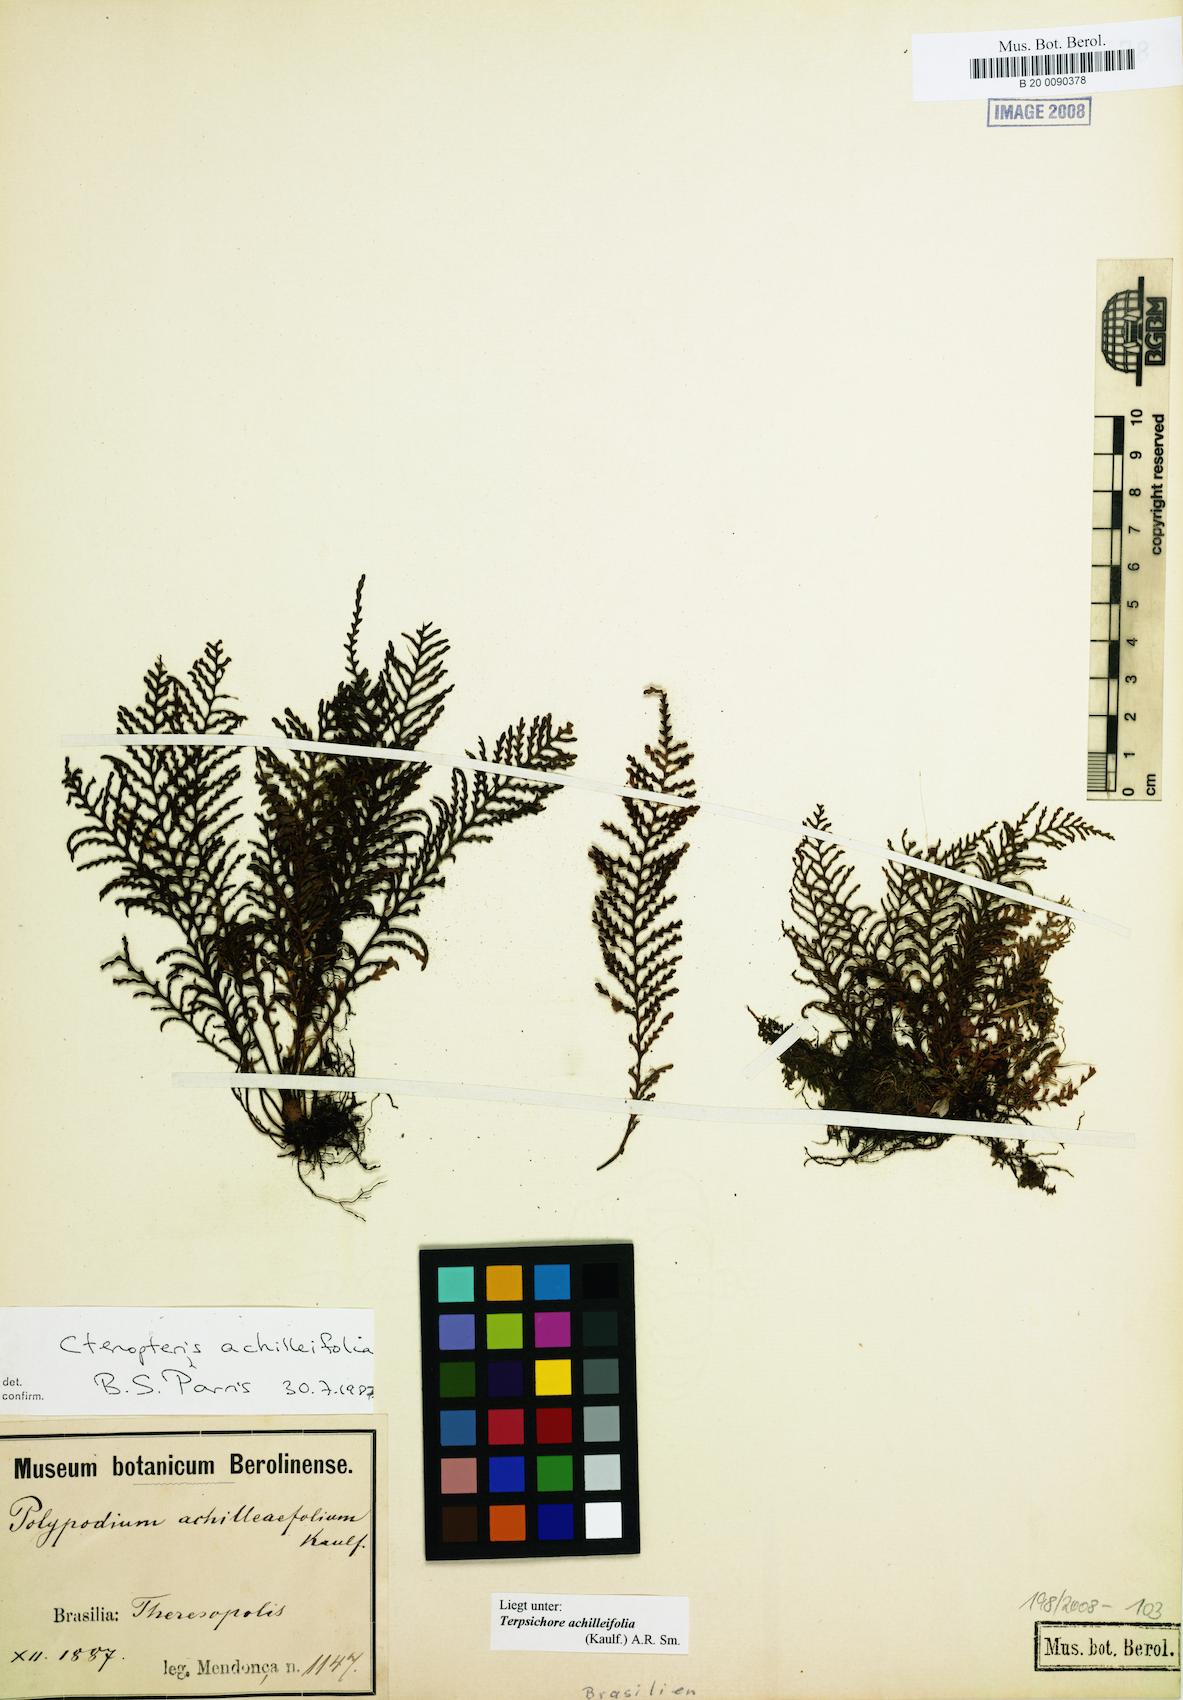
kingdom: Plantae
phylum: Tracheophyta
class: Polypodiopsida
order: Polypodiales
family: Polypodiaceae
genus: Moranopteris
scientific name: Moranopteris achilleifolia
